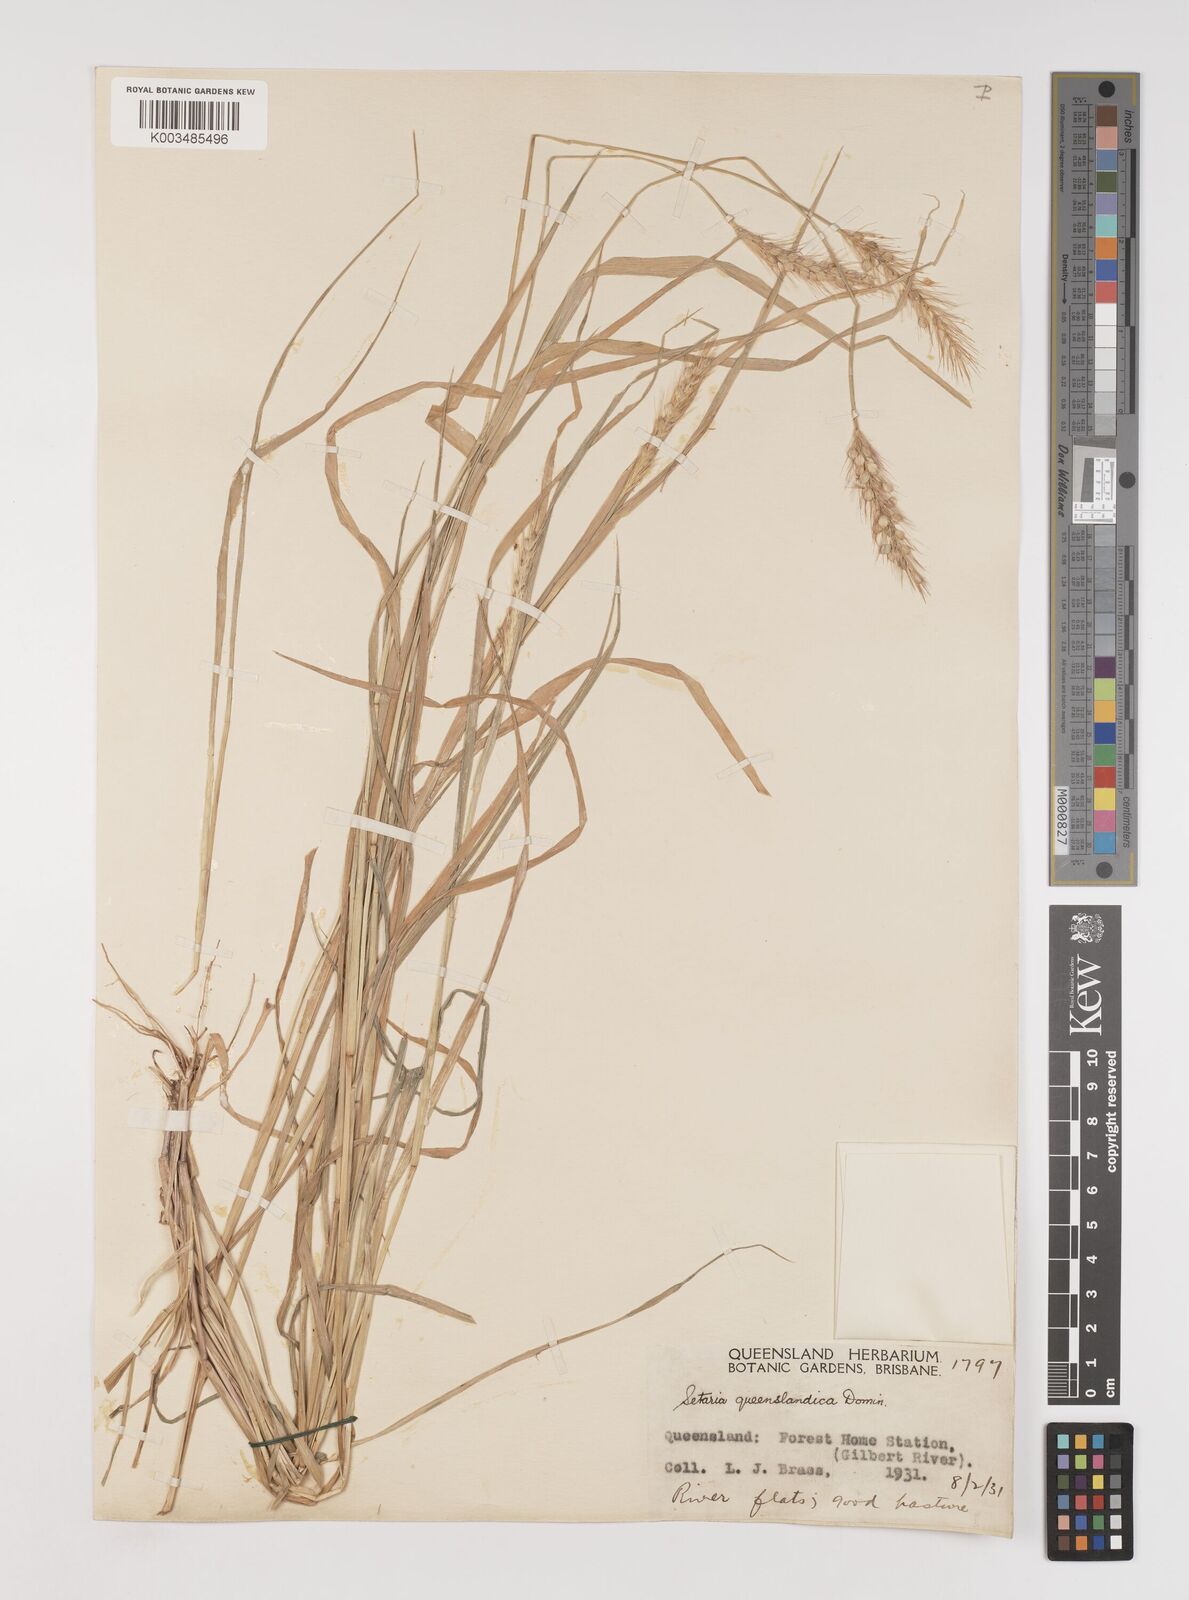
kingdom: Plantae
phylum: Tracheophyta
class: Liliopsida
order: Poales
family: Poaceae
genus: Setaria
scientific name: Setaria queenslandica
